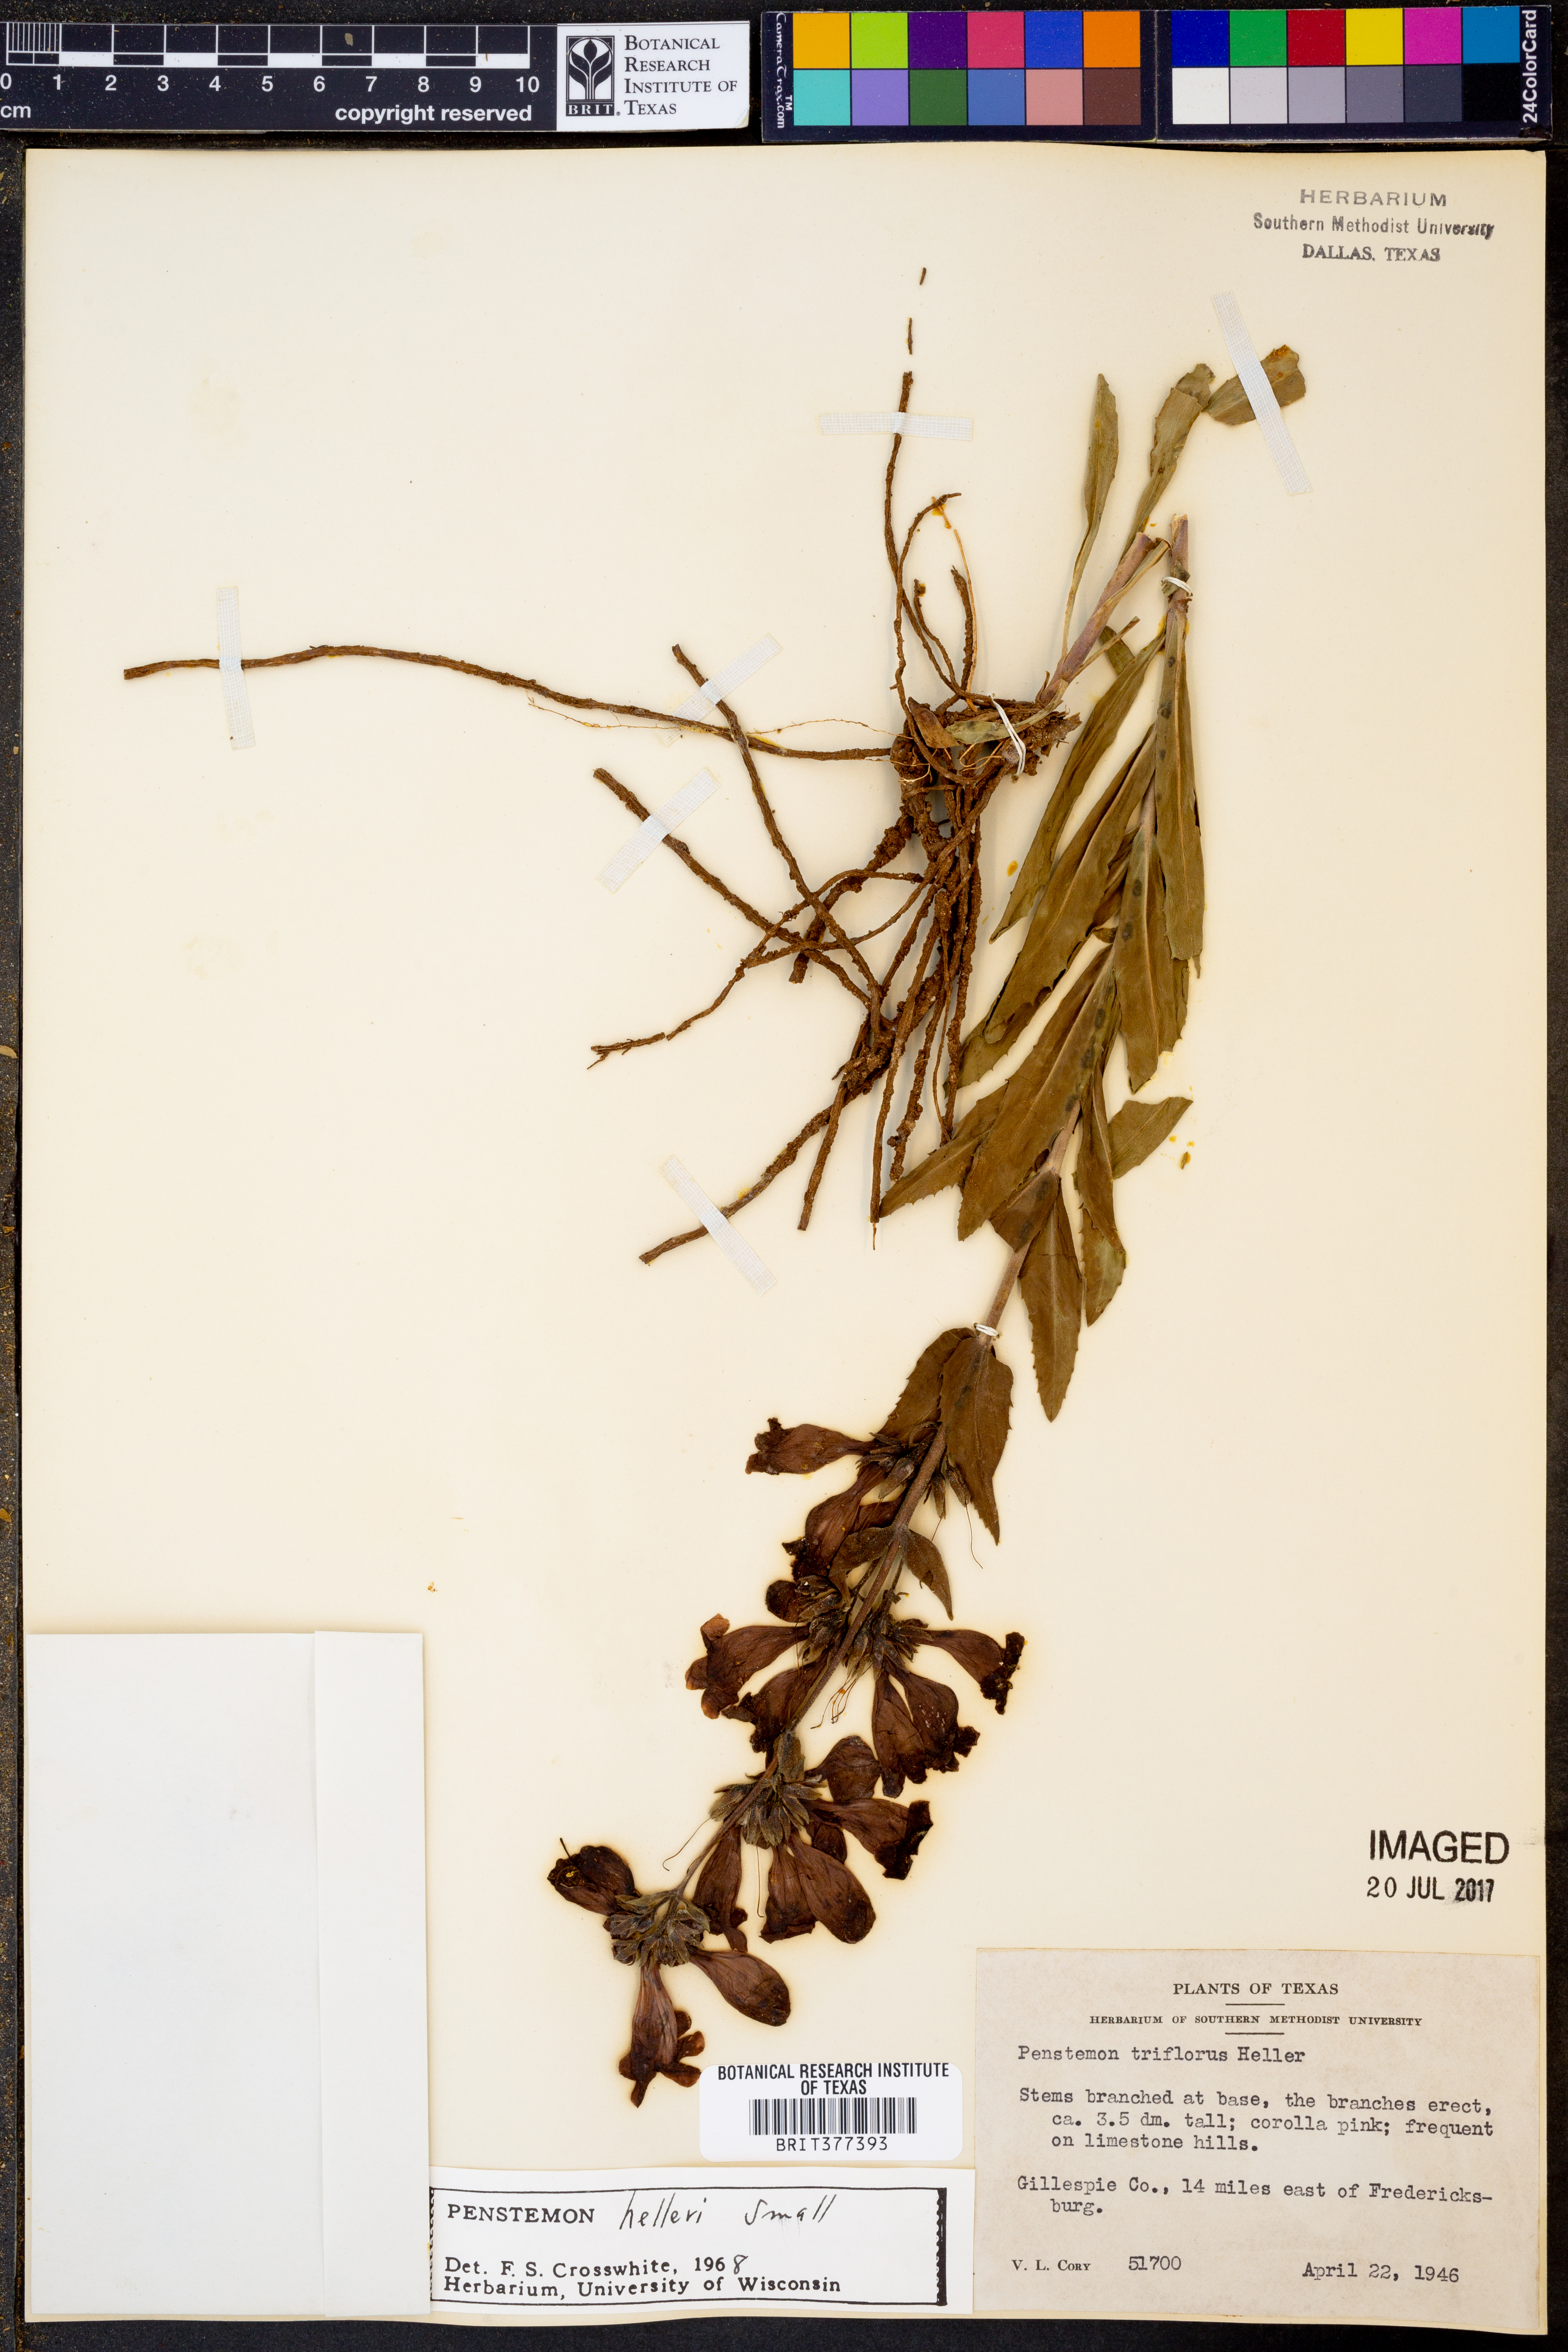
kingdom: Plantae
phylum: Tracheophyta
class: Magnoliopsida
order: Lamiales
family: Plantaginaceae
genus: Penstemon
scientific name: Penstemon triflorus
